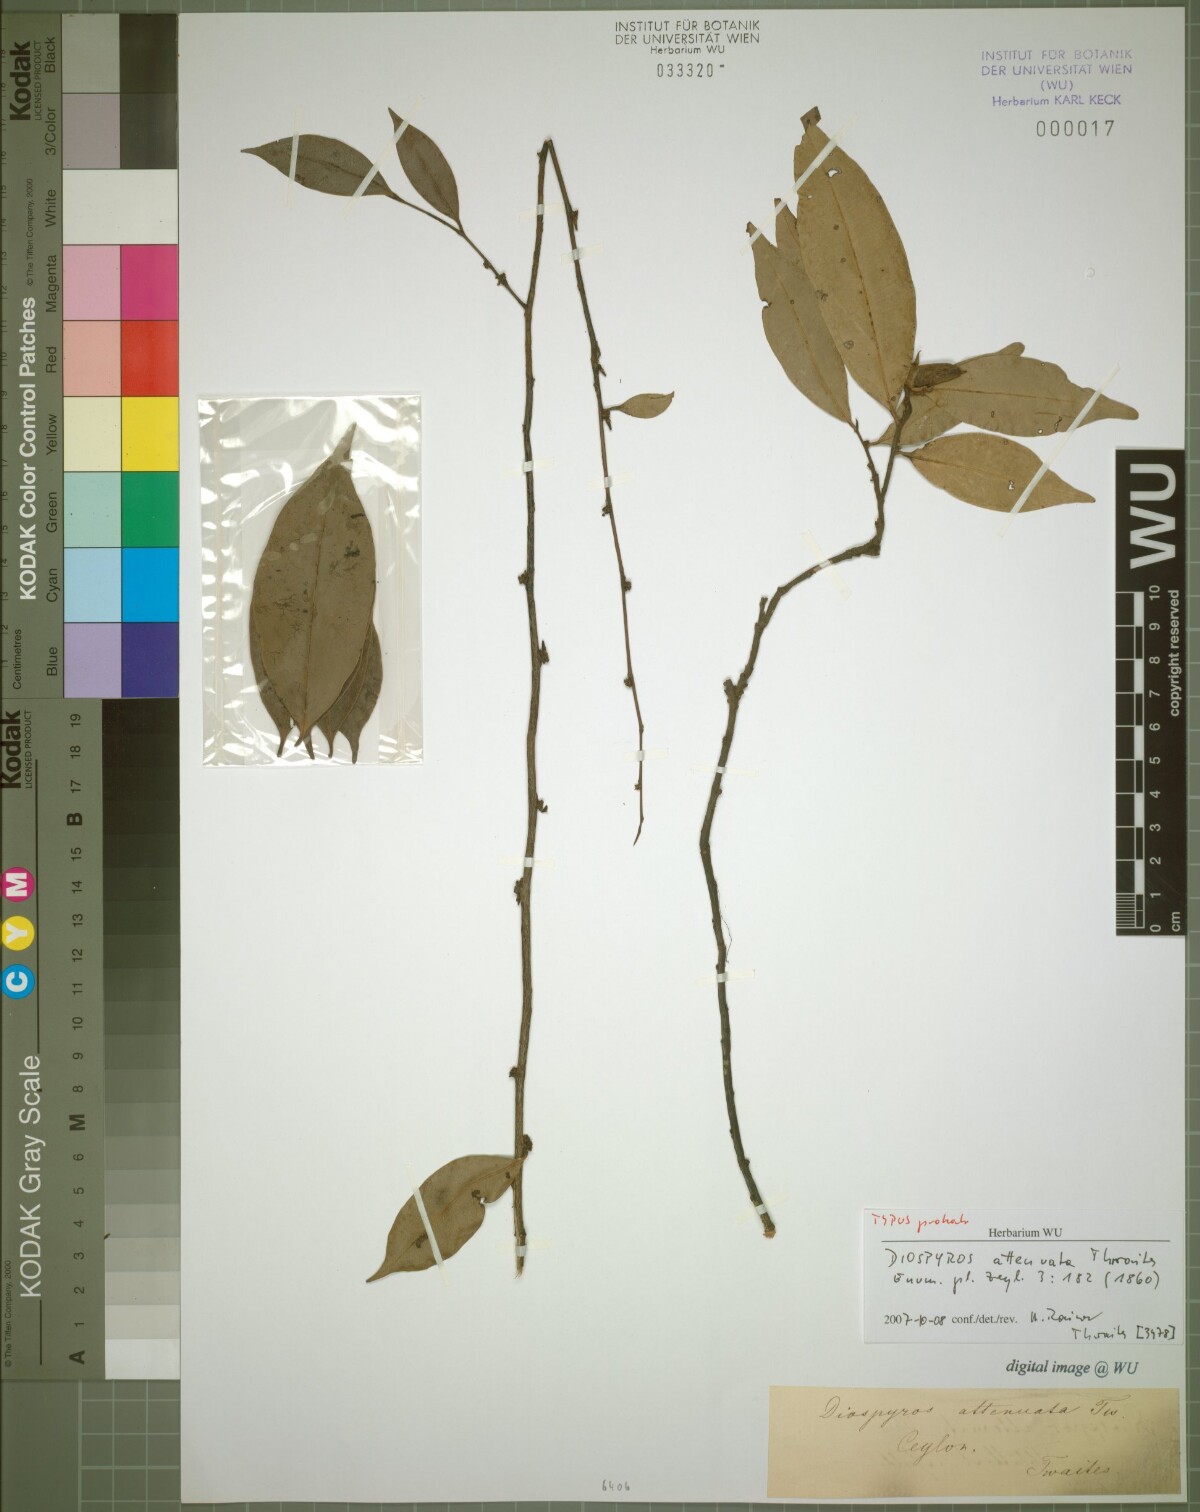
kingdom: Plantae
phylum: Tracheophyta
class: Magnoliopsida
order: Ericales
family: Ebenaceae
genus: Diospyros
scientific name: Diospyros attenuata
